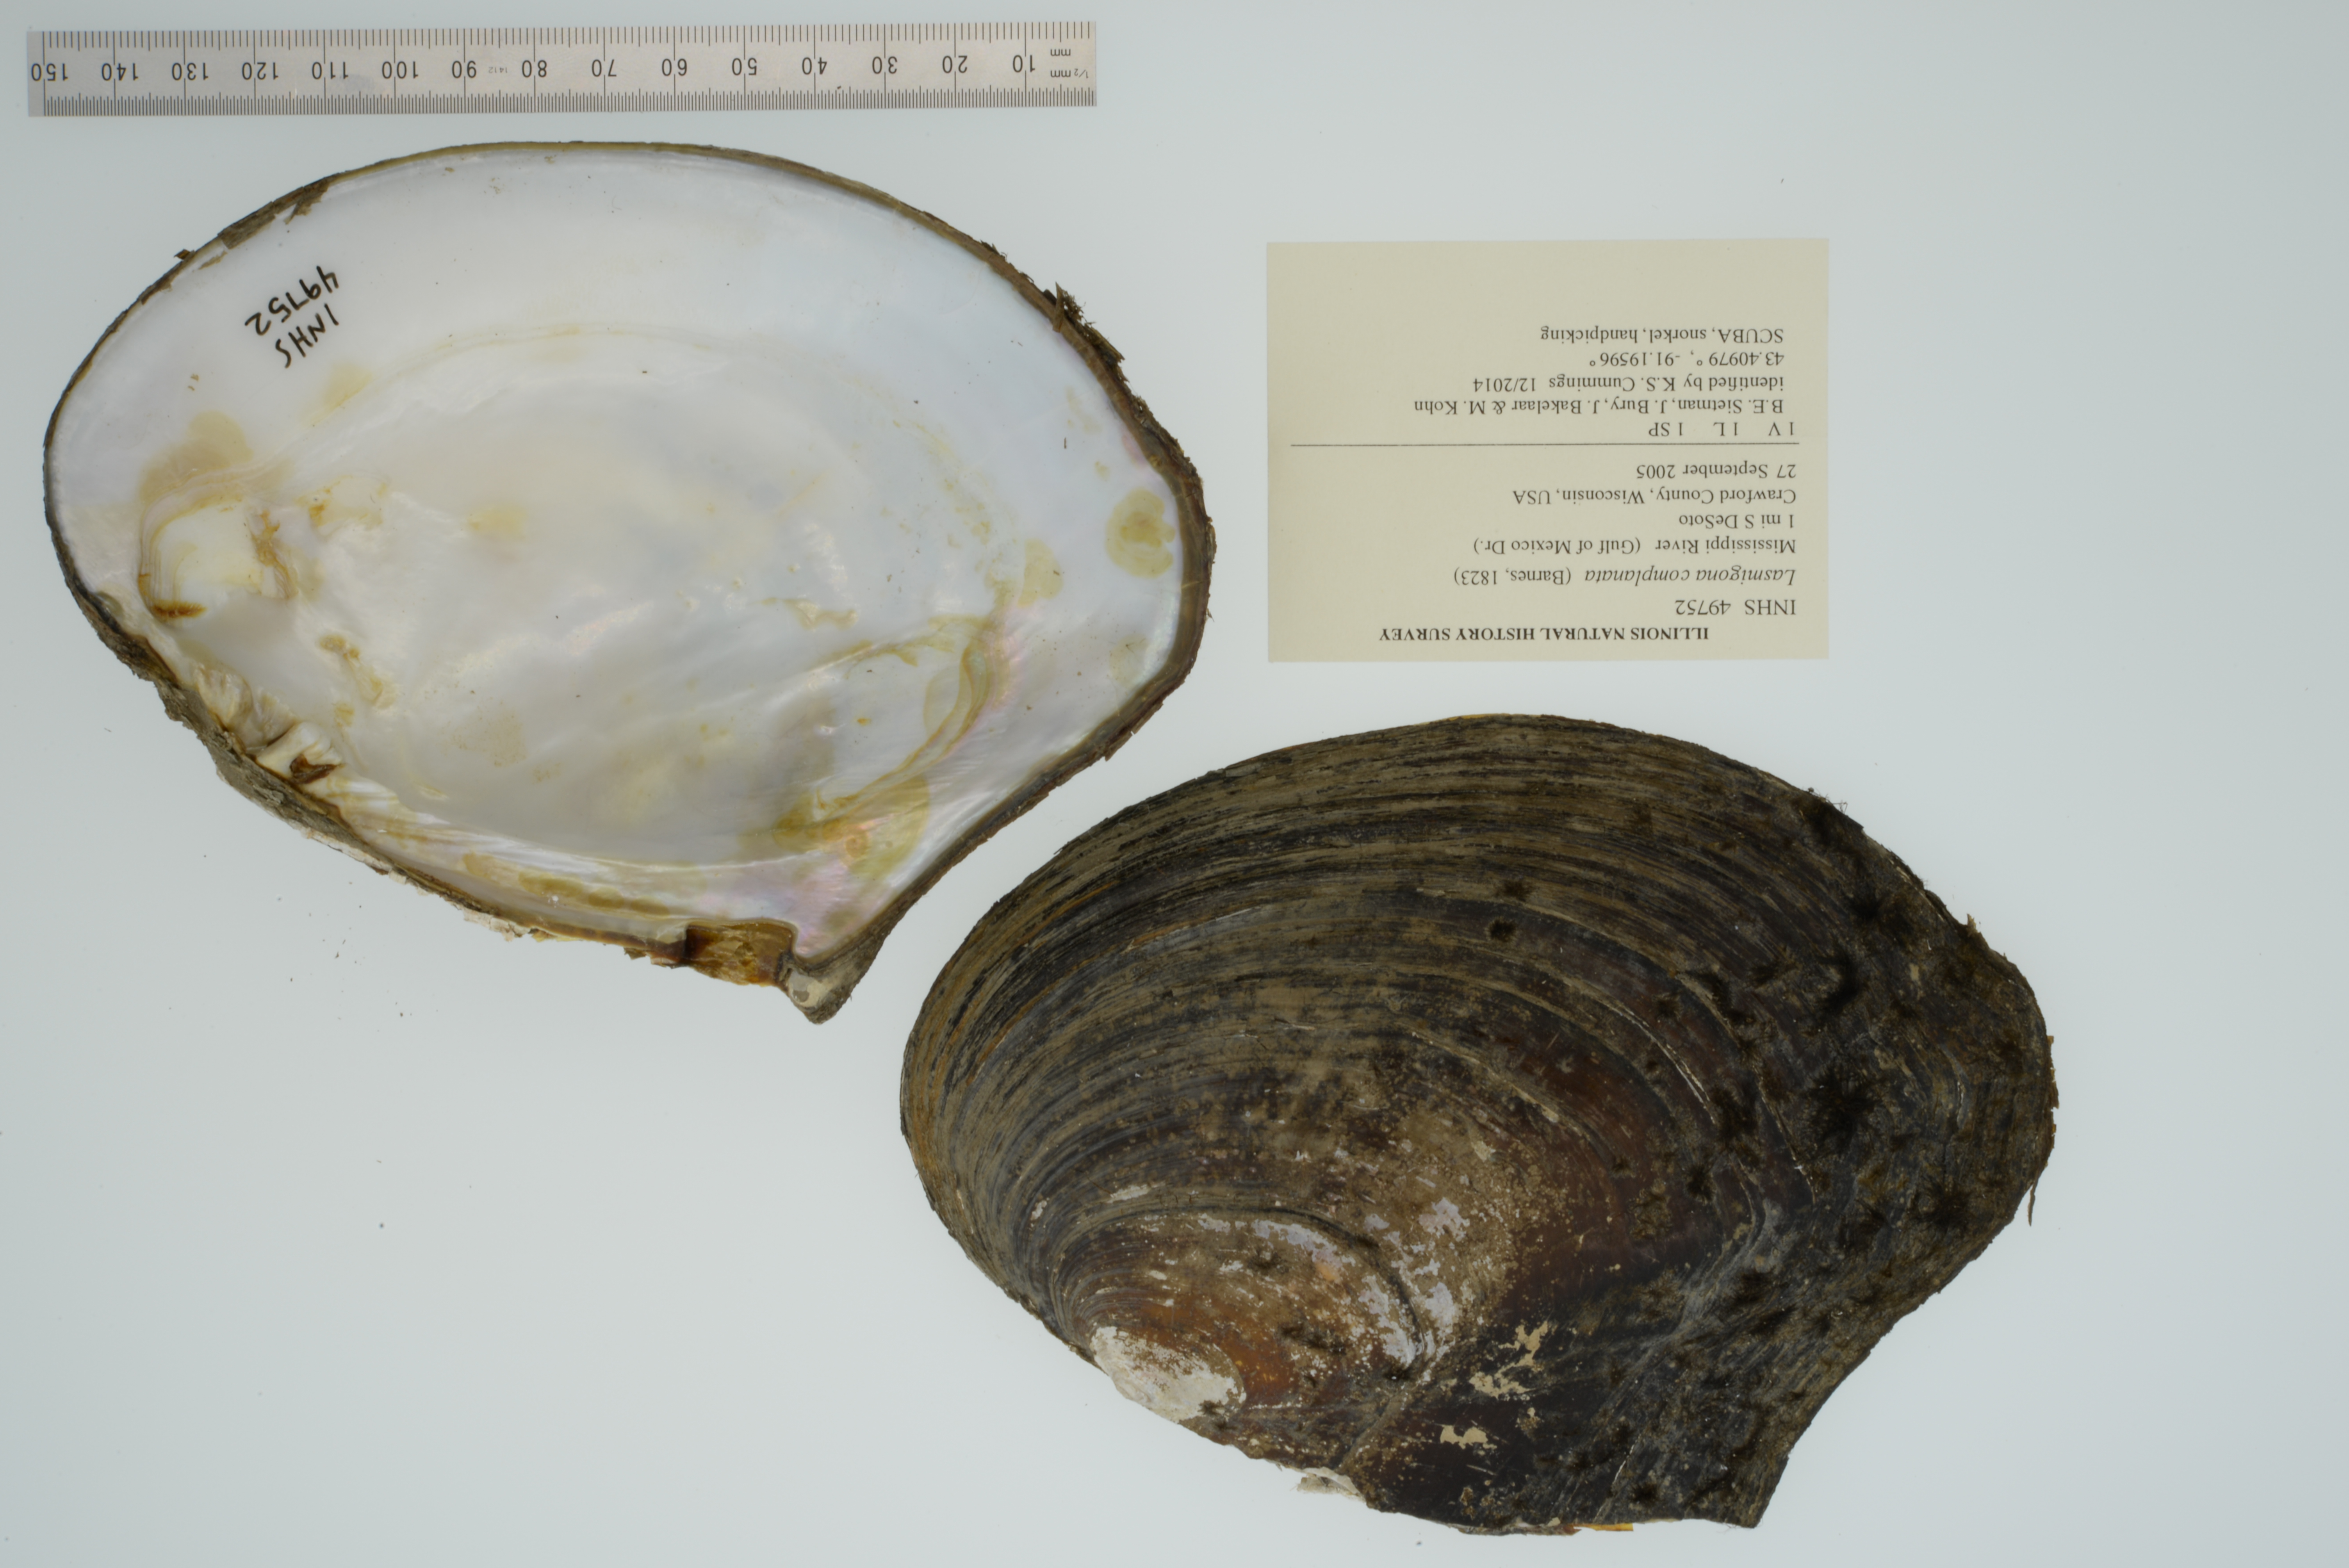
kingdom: Animalia
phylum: Mollusca
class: Bivalvia
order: Unionida
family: Unionidae
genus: Lasmigona
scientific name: Lasmigona complanata
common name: White heelsplitter
